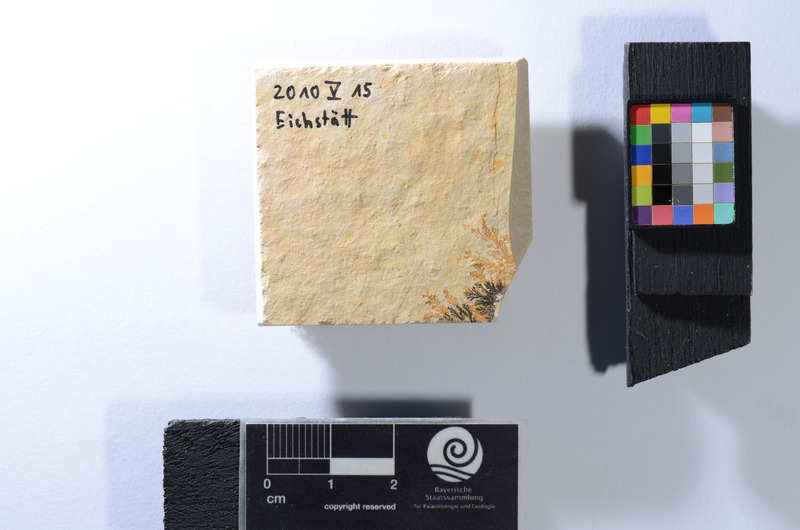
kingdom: Animalia
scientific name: Animalia
